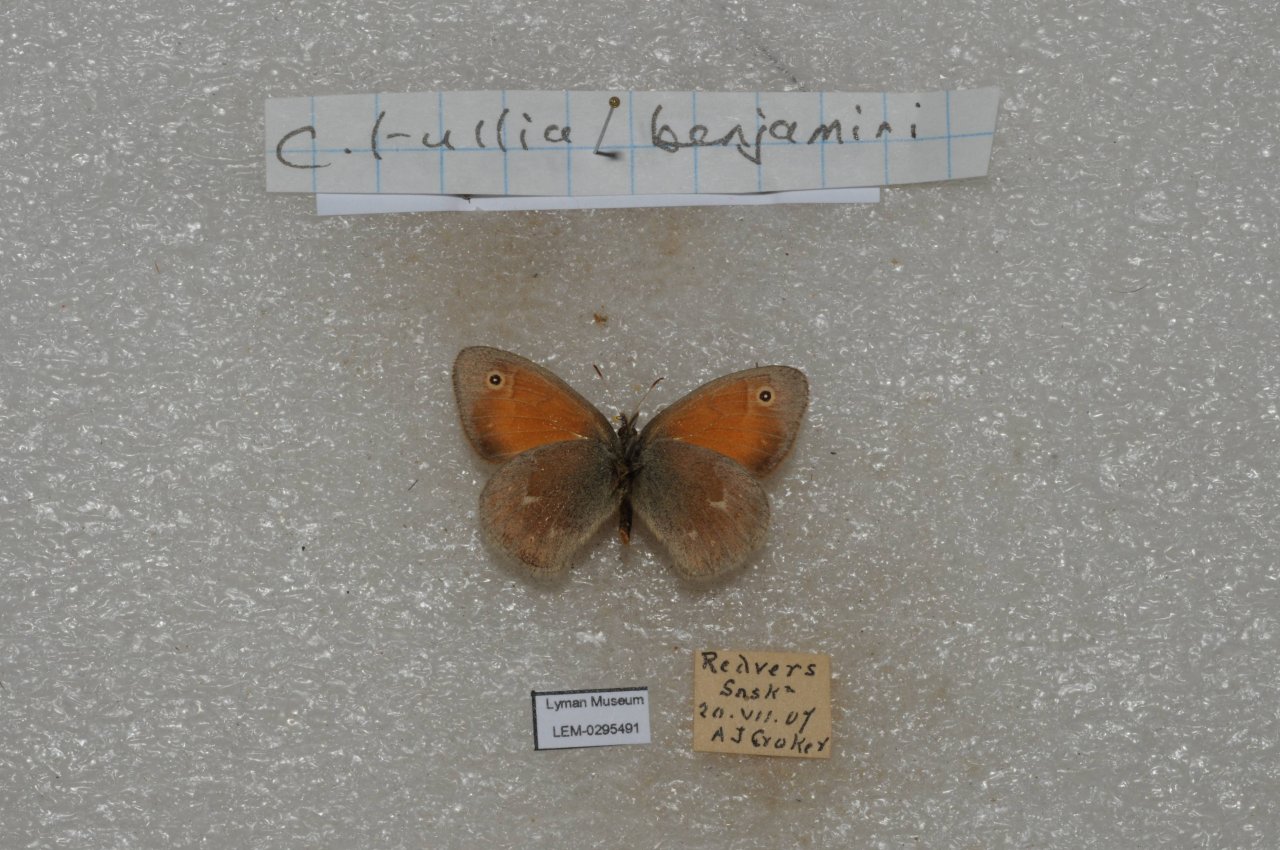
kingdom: Animalia
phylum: Arthropoda
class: Insecta
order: Lepidoptera
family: Nymphalidae
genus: Coenonympha
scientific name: Coenonympha tullia
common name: Large Heath
